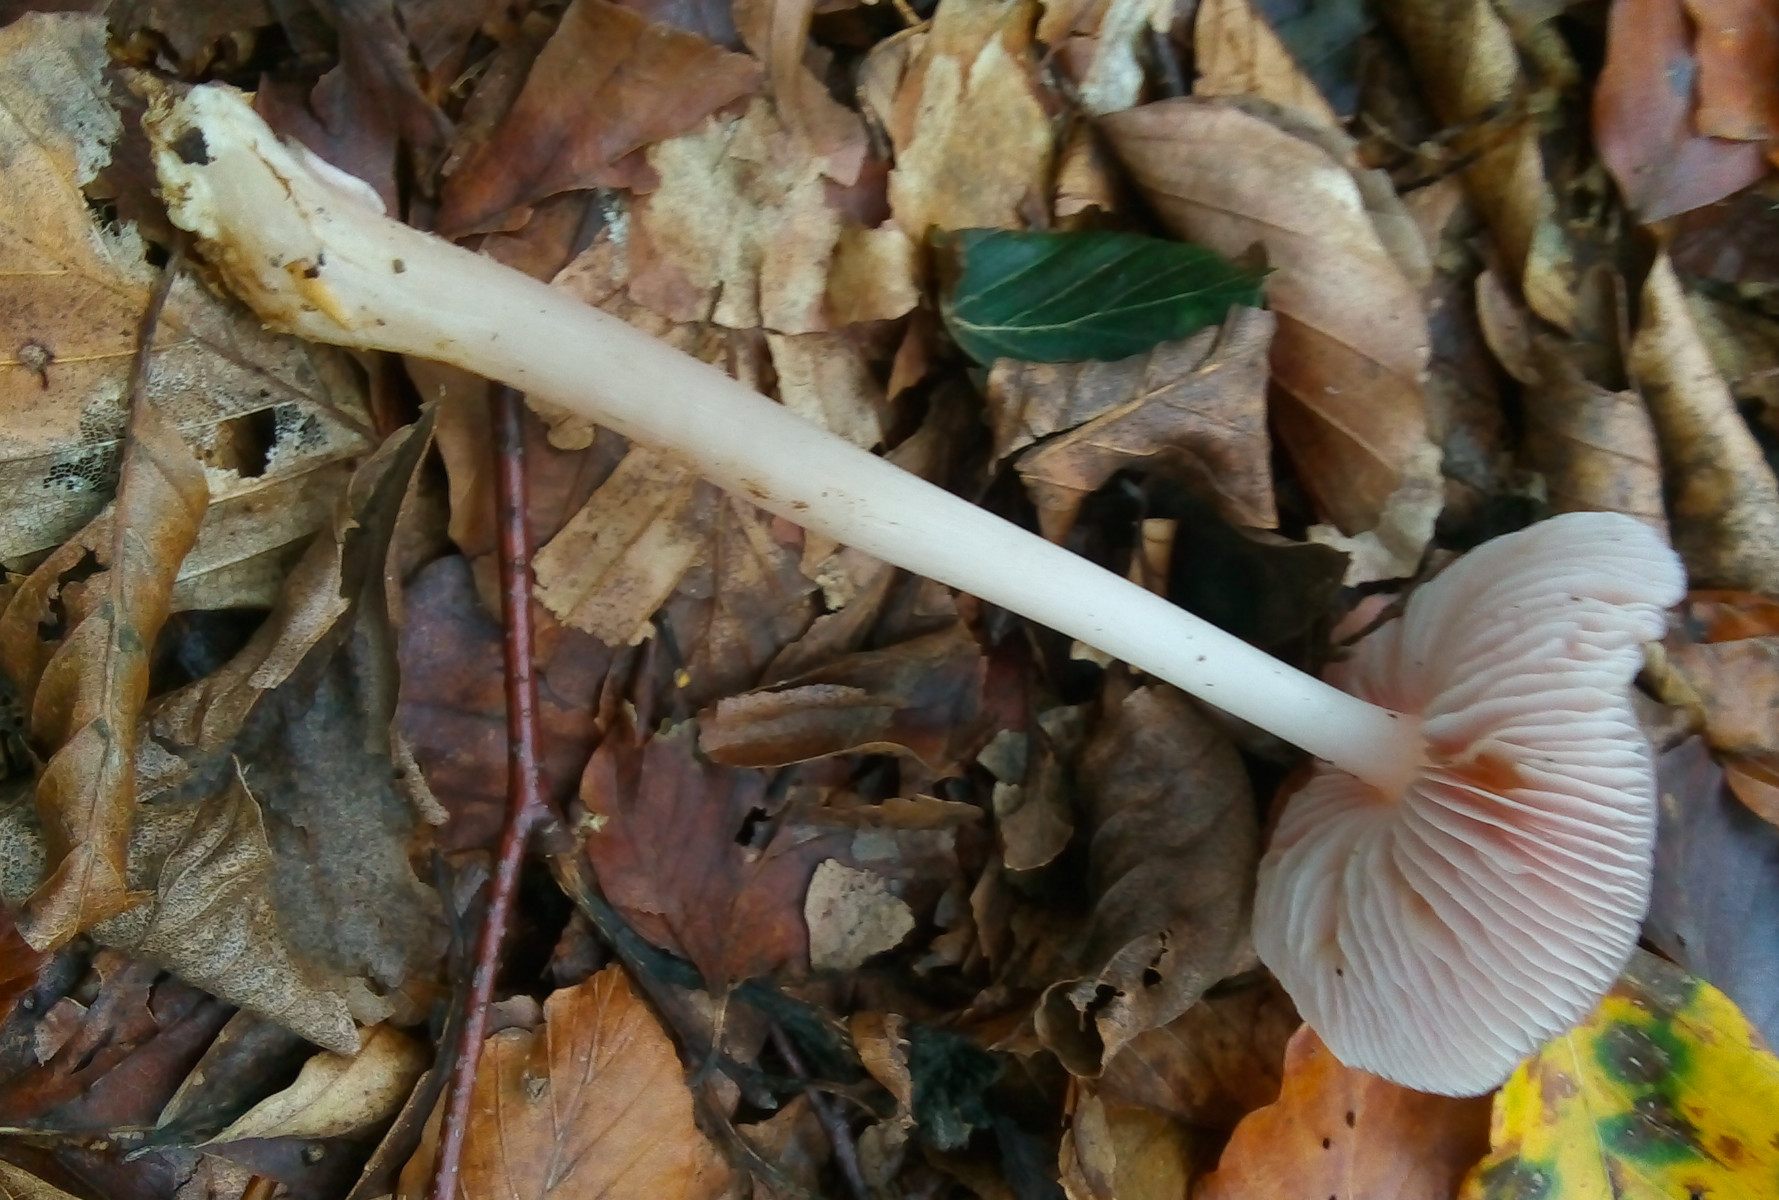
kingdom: Fungi
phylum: Basidiomycota
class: Agaricomycetes
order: Agaricales
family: Mycenaceae
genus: Mycena
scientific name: Mycena rosea
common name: rosa huesvamp
